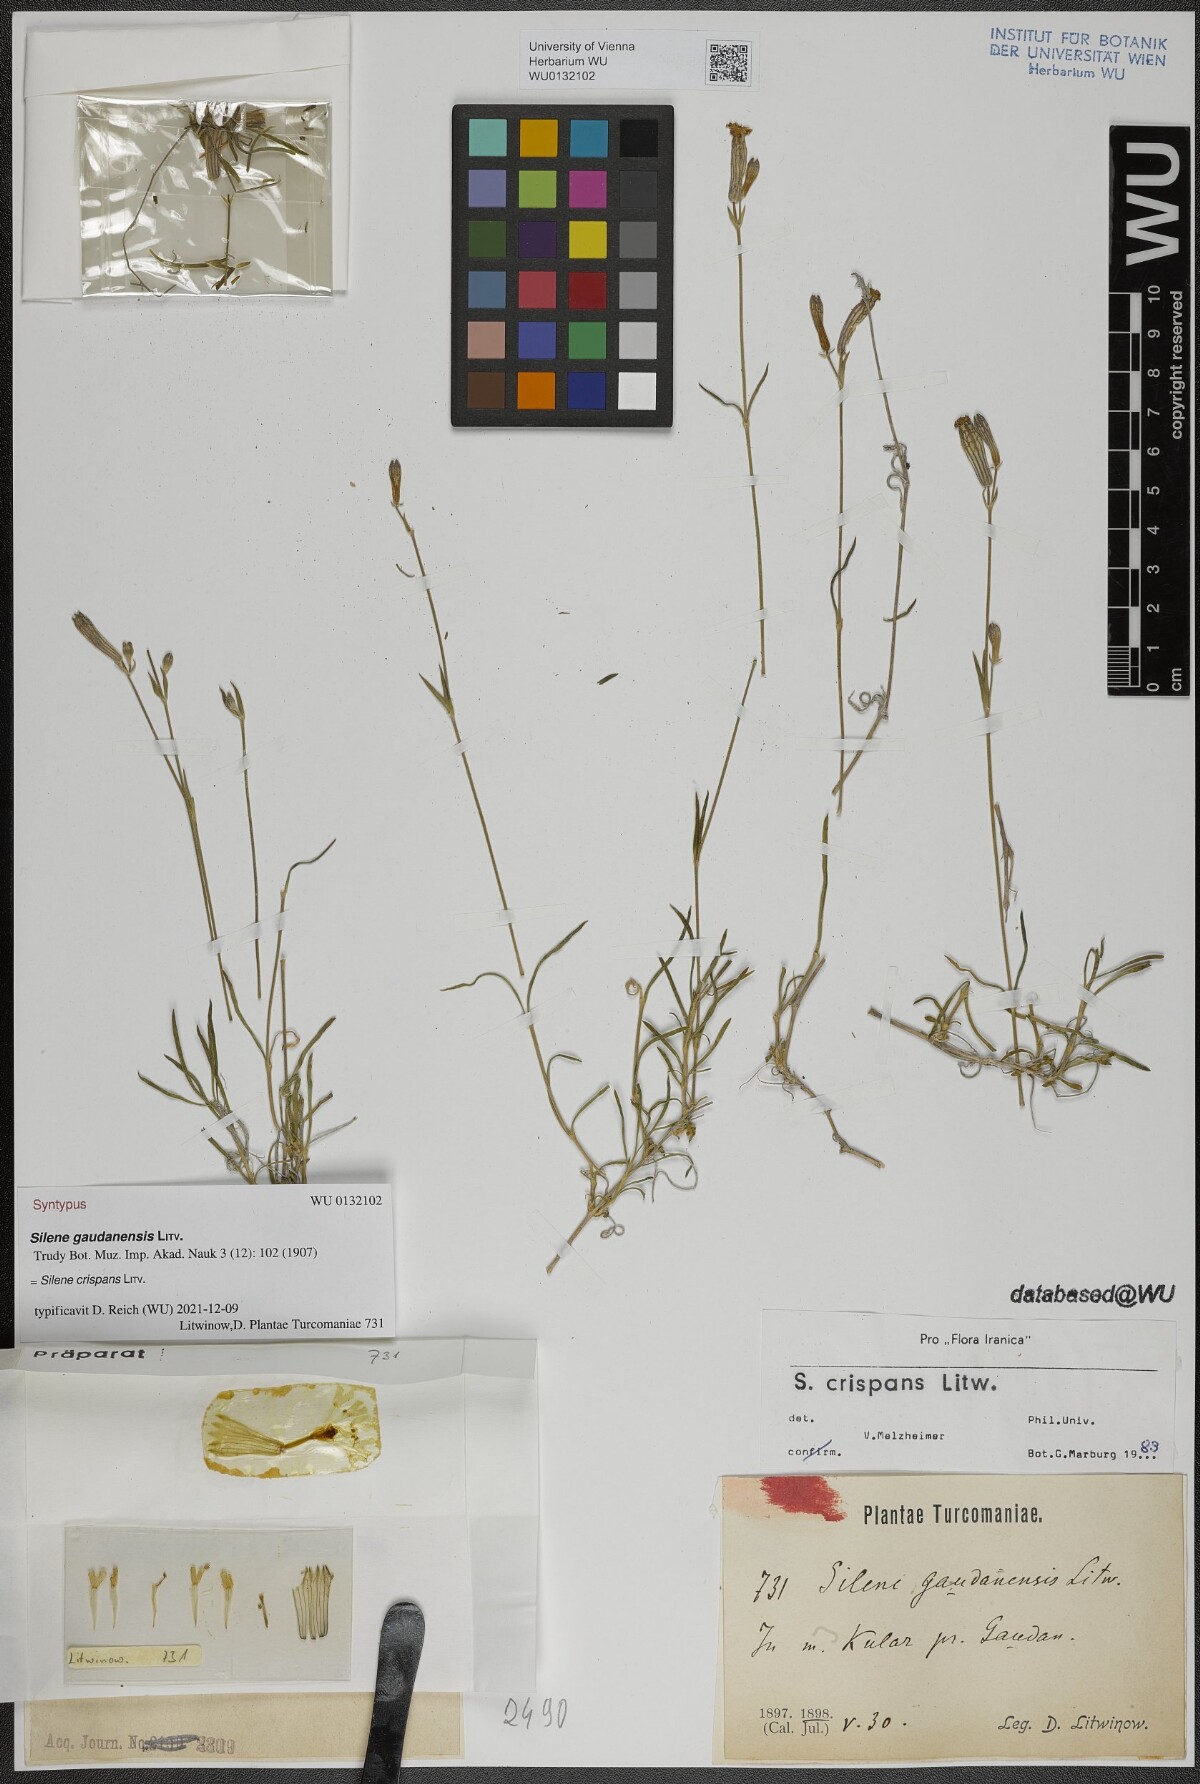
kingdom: Plantae
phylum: Tracheophyta
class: Magnoliopsida
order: Caryophyllales
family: Caryophyllaceae
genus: Silene
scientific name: Silene crispans
